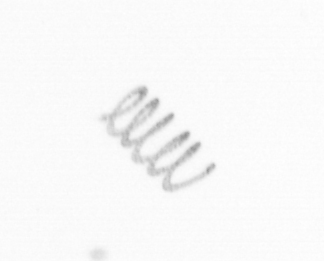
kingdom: Chromista
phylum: Ochrophyta
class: Bacillariophyceae
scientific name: Bacillariophyceae
